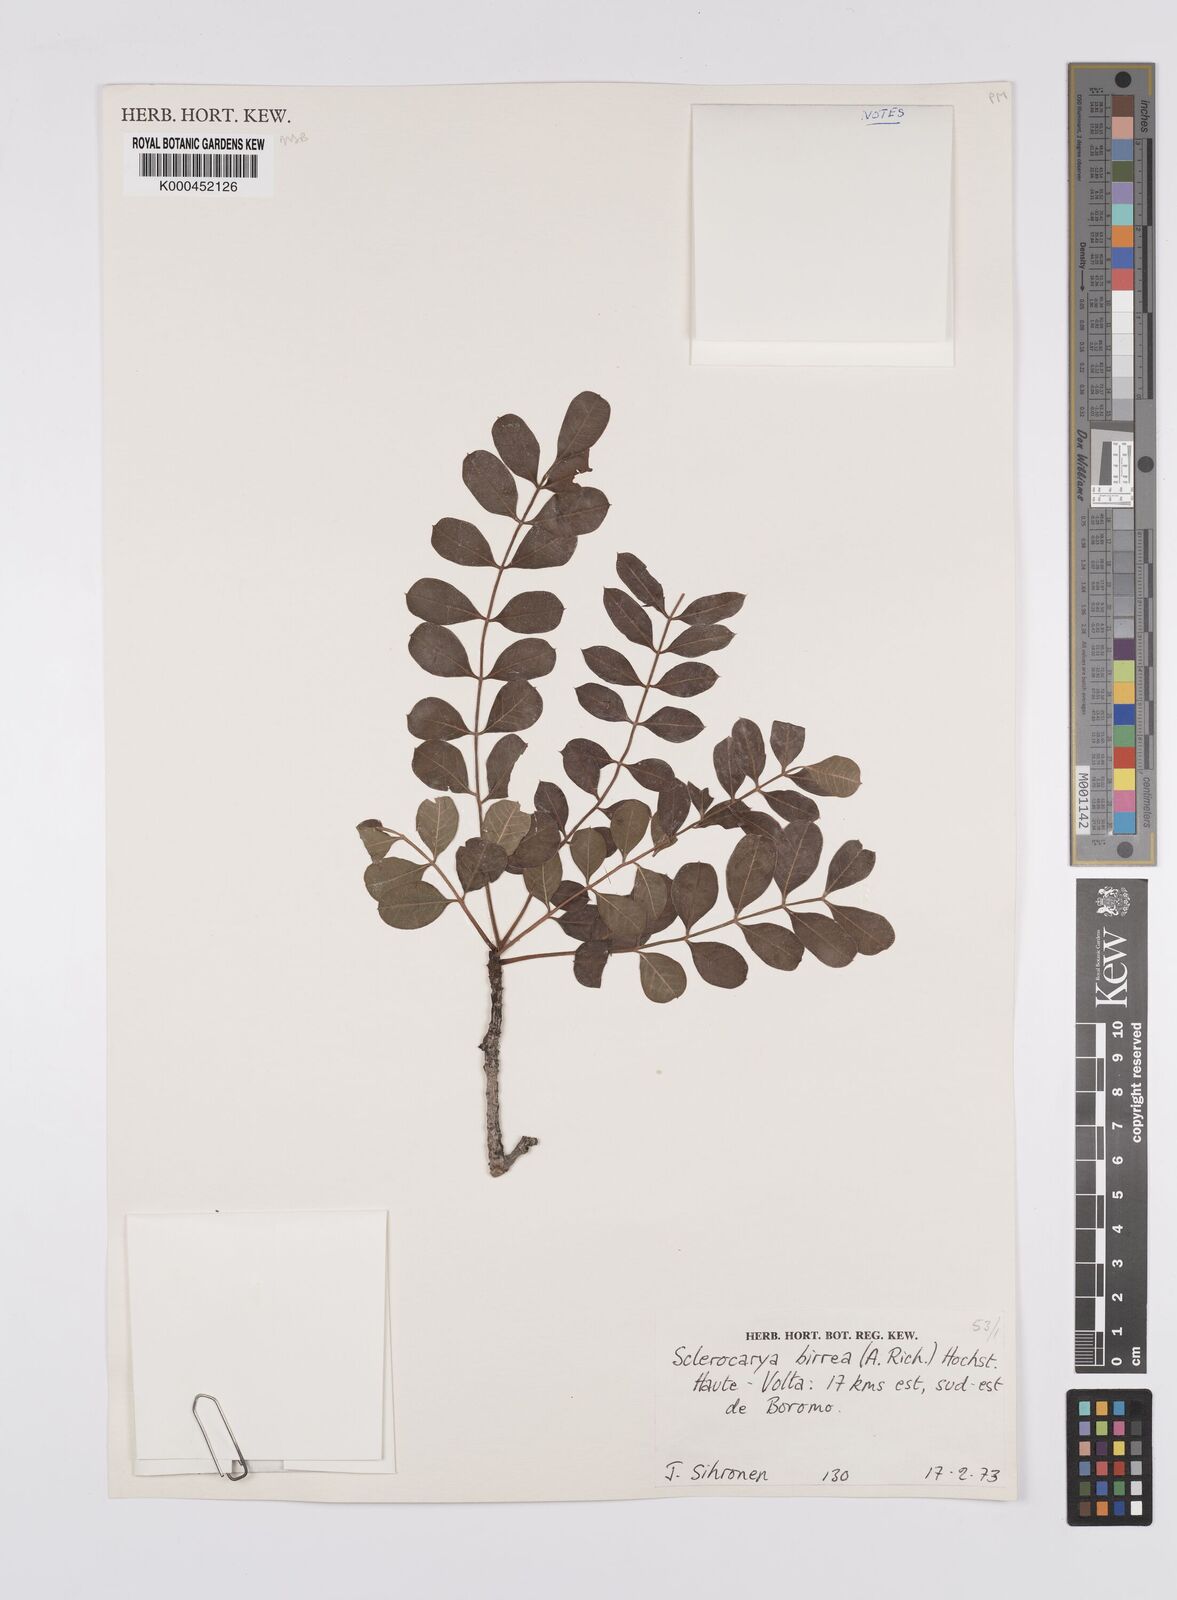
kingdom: Plantae
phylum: Tracheophyta
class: Magnoliopsida
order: Sapindales
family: Anacardiaceae
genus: Sclerocarya
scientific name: Sclerocarya birrea
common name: Marula
